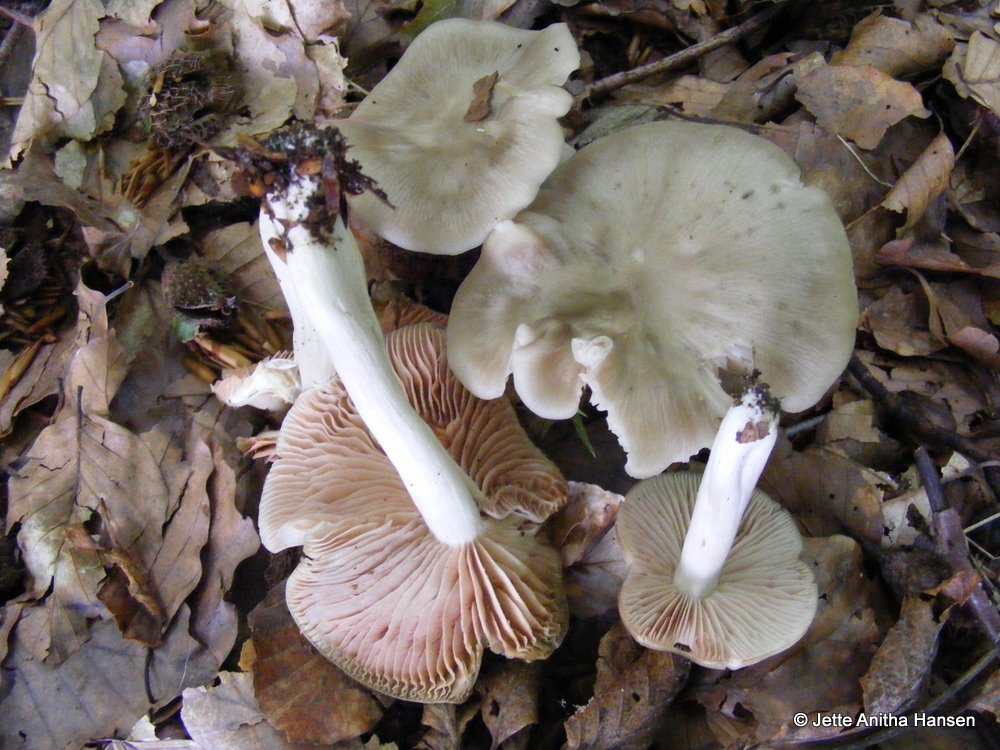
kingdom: Fungi
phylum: Basidiomycota
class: Agaricomycetes
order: Agaricales
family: Entolomataceae
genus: Entoloma
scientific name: Entoloma rhodopolium
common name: skov-rødblad
